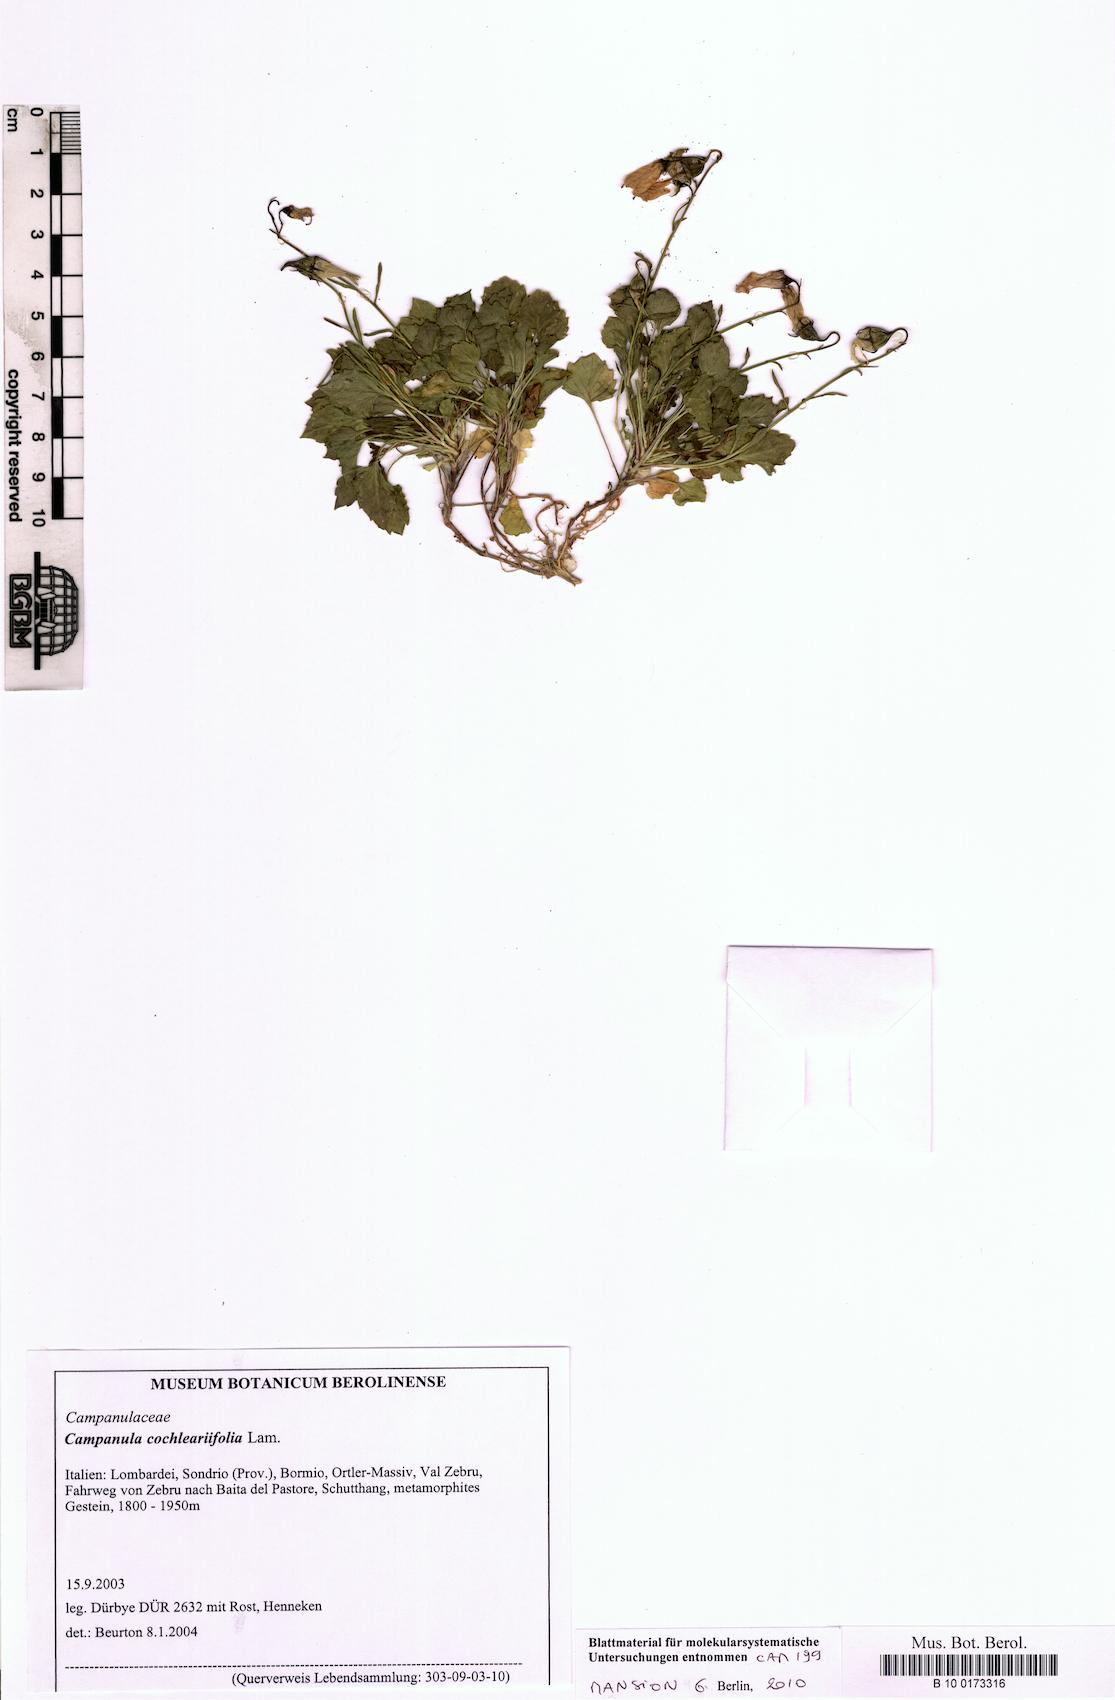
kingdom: Plantae
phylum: Tracheophyta
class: Magnoliopsida
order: Asterales
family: Campanulaceae
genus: Campanula
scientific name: Campanula cochleariifolia
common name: Fairies'-thimbles
